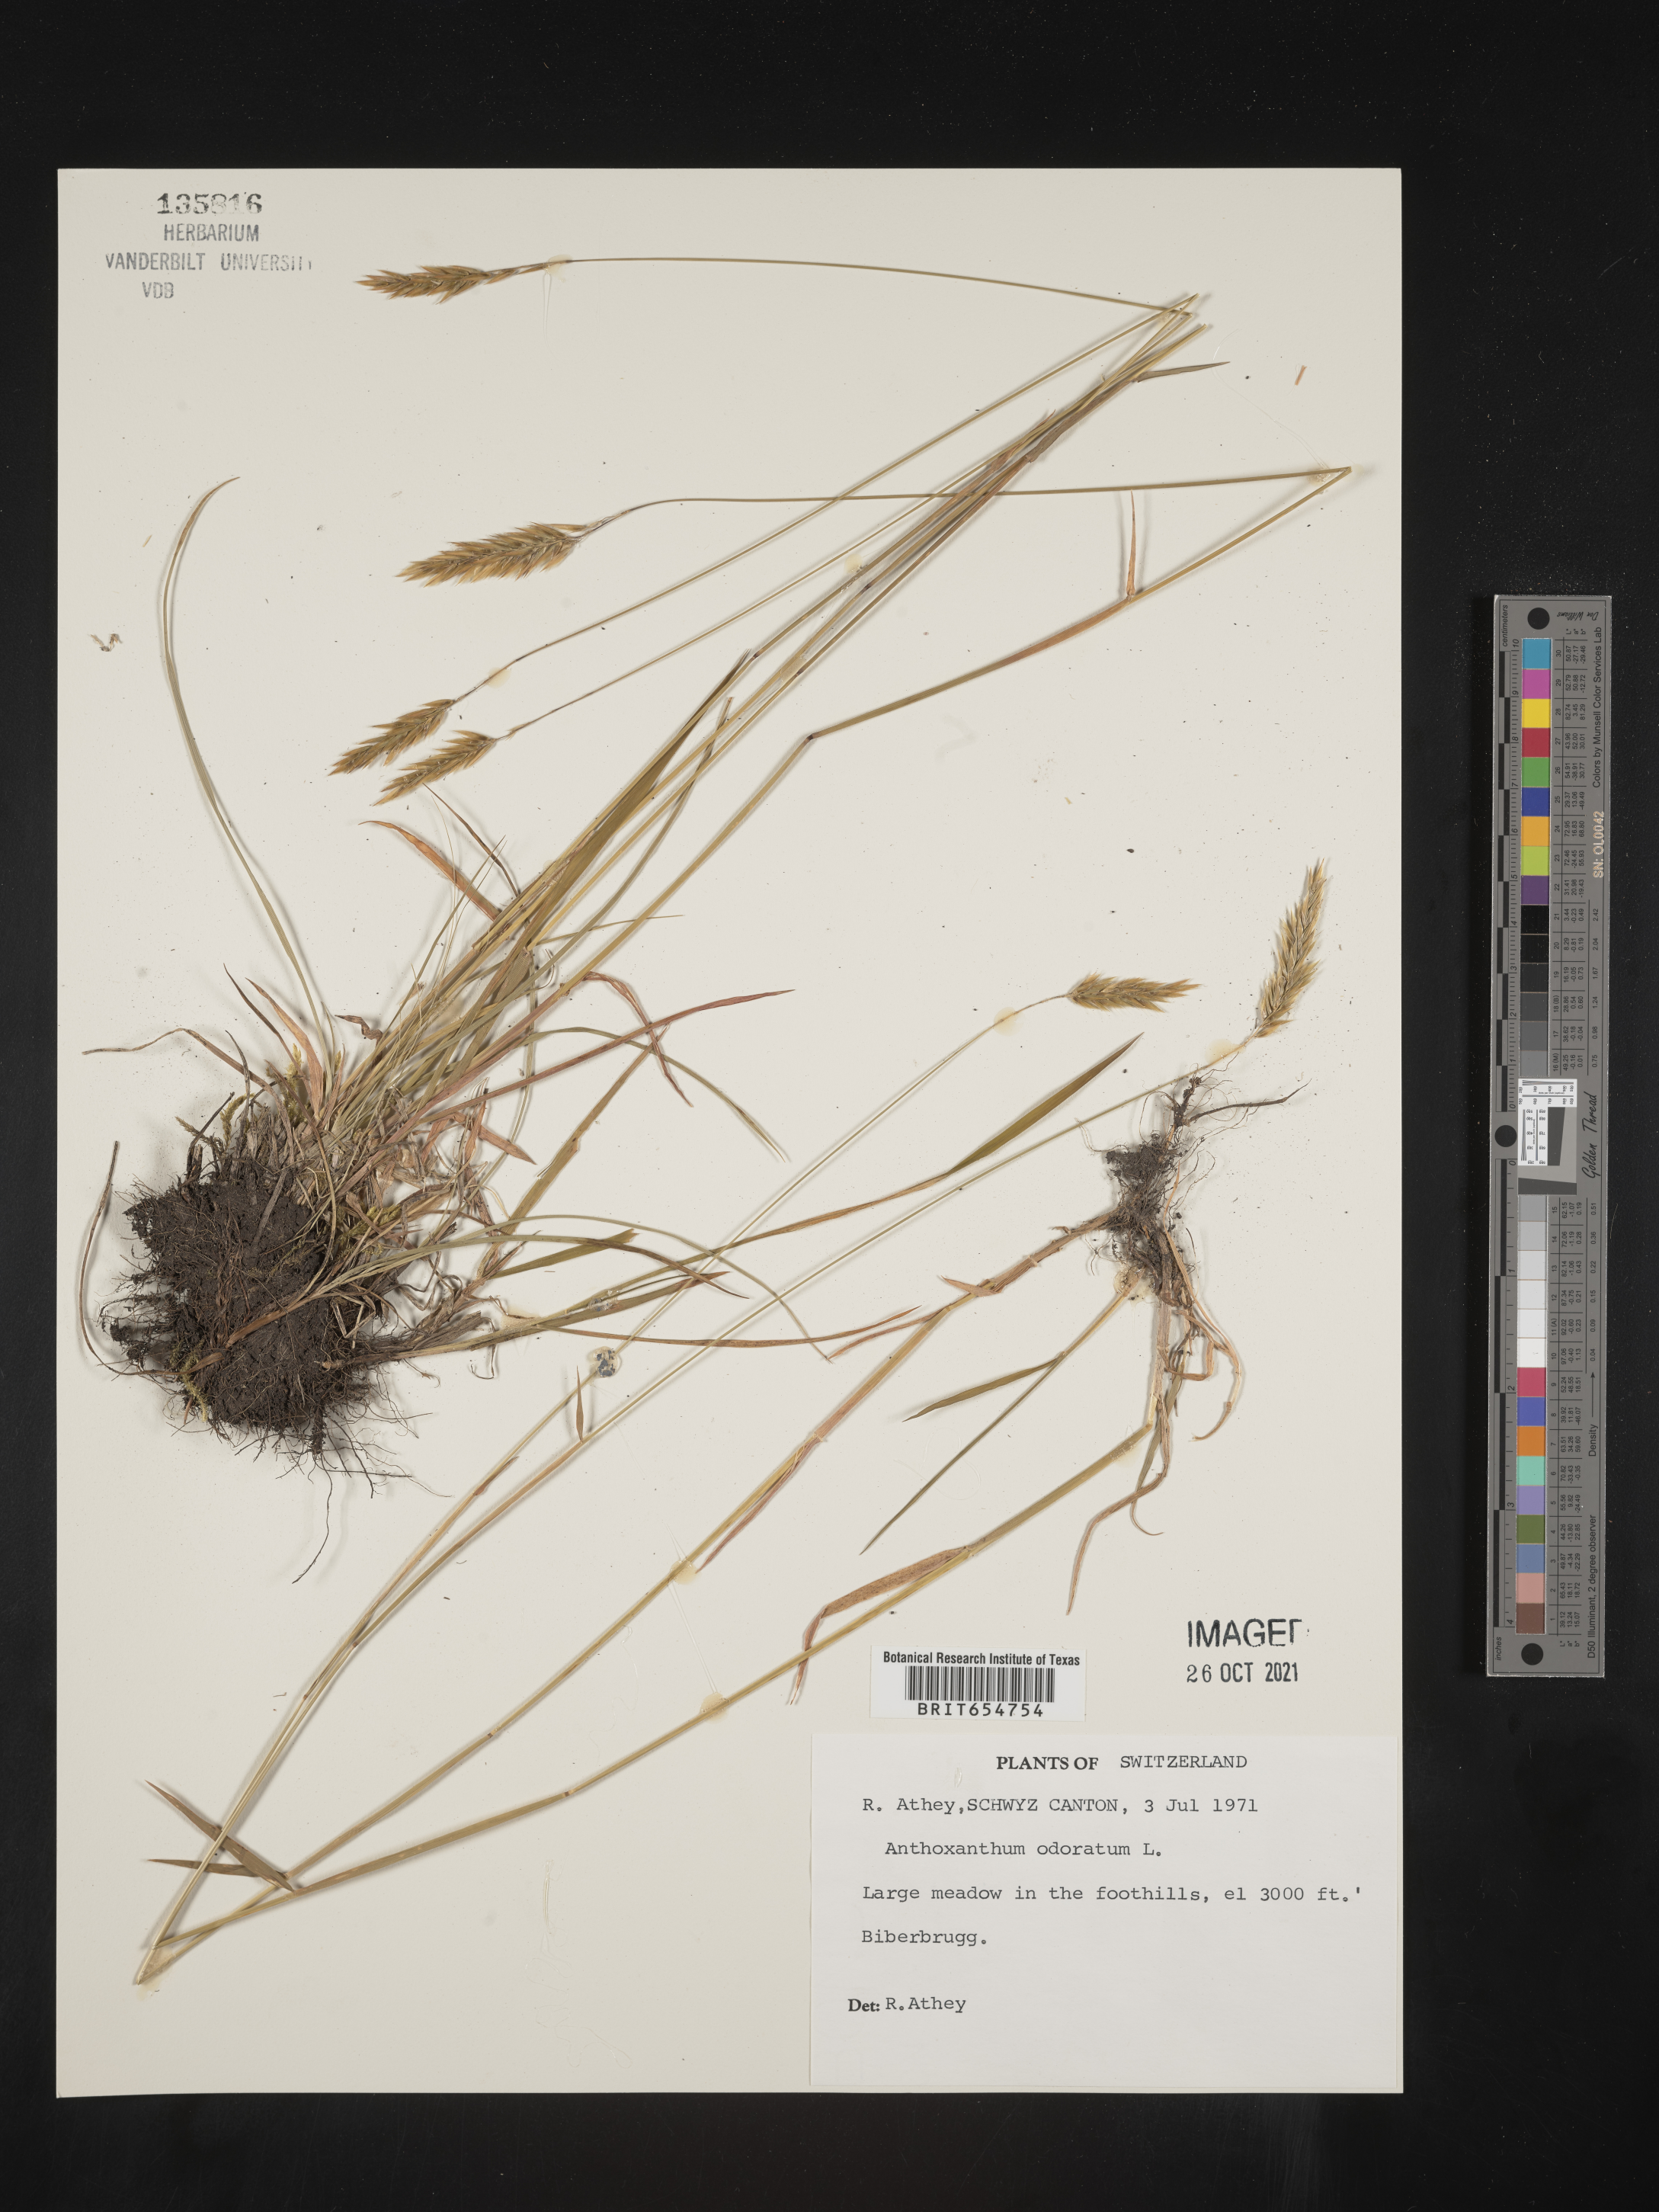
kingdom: Plantae
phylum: Tracheophyta
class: Liliopsida
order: Poales
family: Poaceae
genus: Anthoxanthum
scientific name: Anthoxanthum
